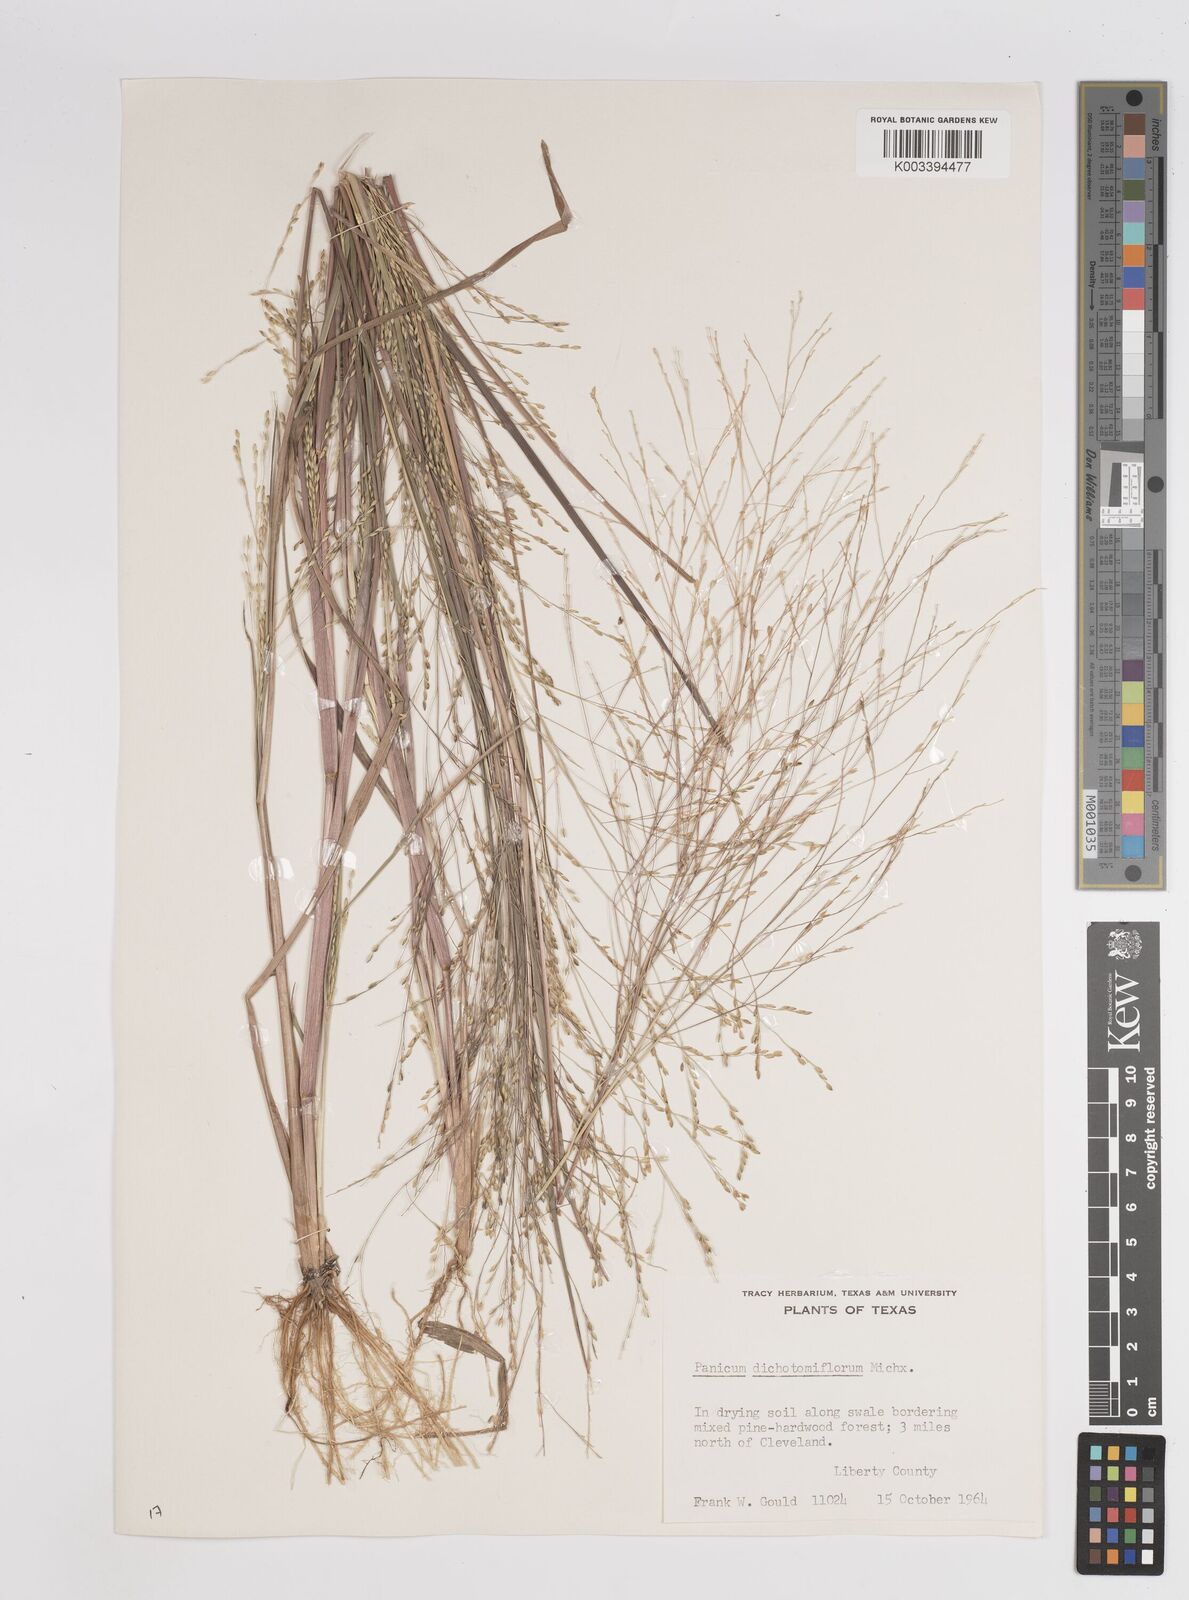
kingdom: Plantae
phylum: Tracheophyta
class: Liliopsida
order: Poales
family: Poaceae
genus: Panicum
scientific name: Panicum dichotomiflorum
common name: Autumn millet
